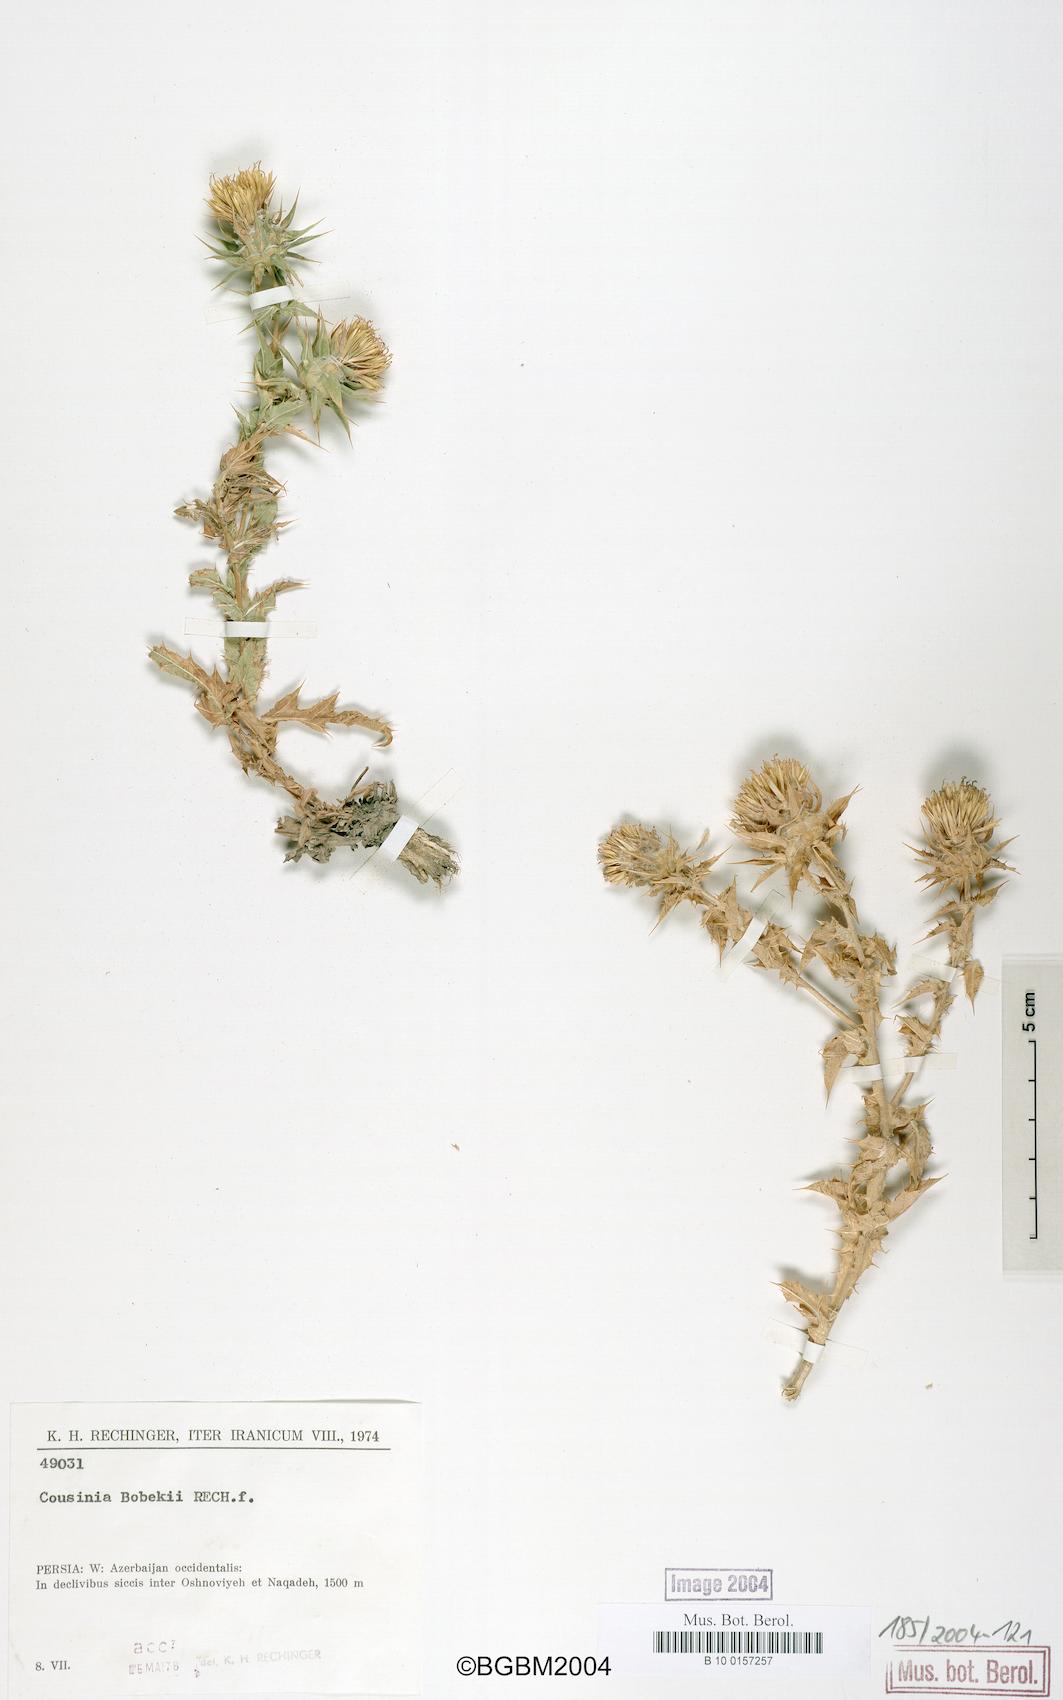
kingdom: Plantae
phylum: Tracheophyta
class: Magnoliopsida
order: Asterales
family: Asteraceae
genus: Cousinia
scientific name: Cousinia bobekii
